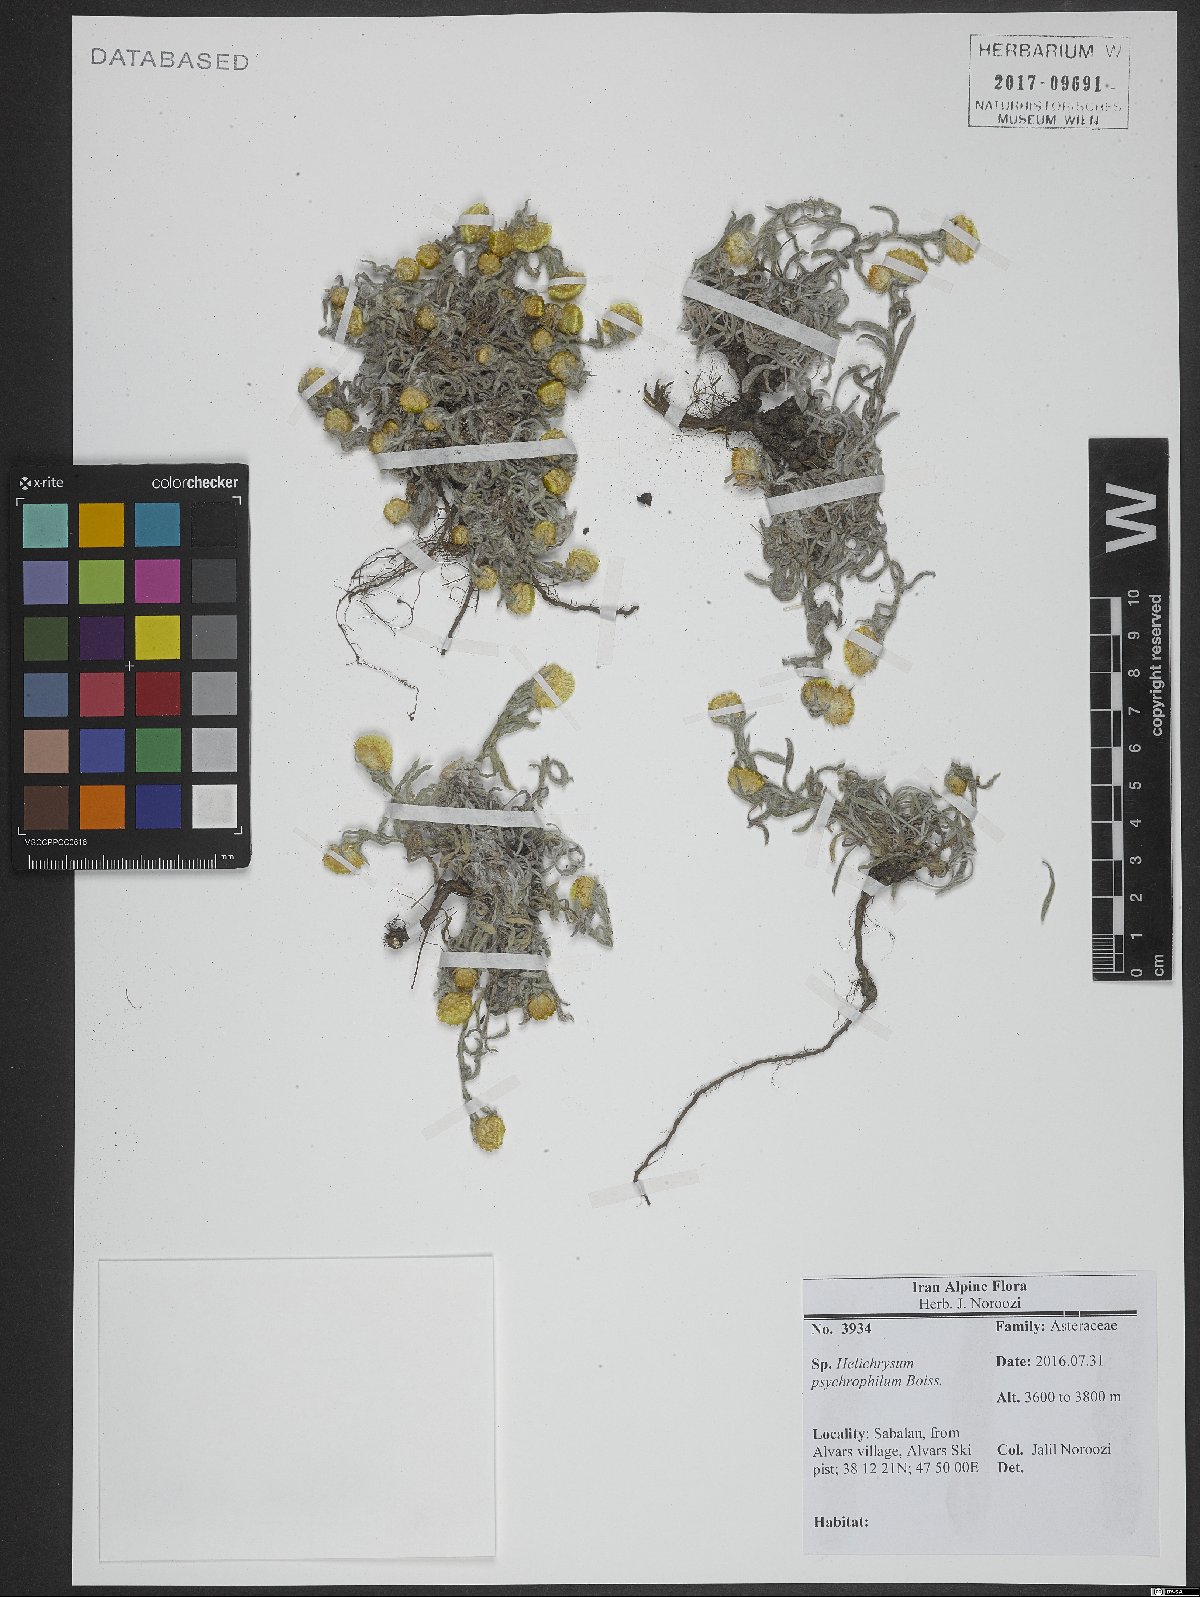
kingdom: Plantae
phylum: Tracheophyta
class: Magnoliopsida
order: Asterales
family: Asteraceae
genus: Helichrysum
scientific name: Helichrysum psychrophilum
